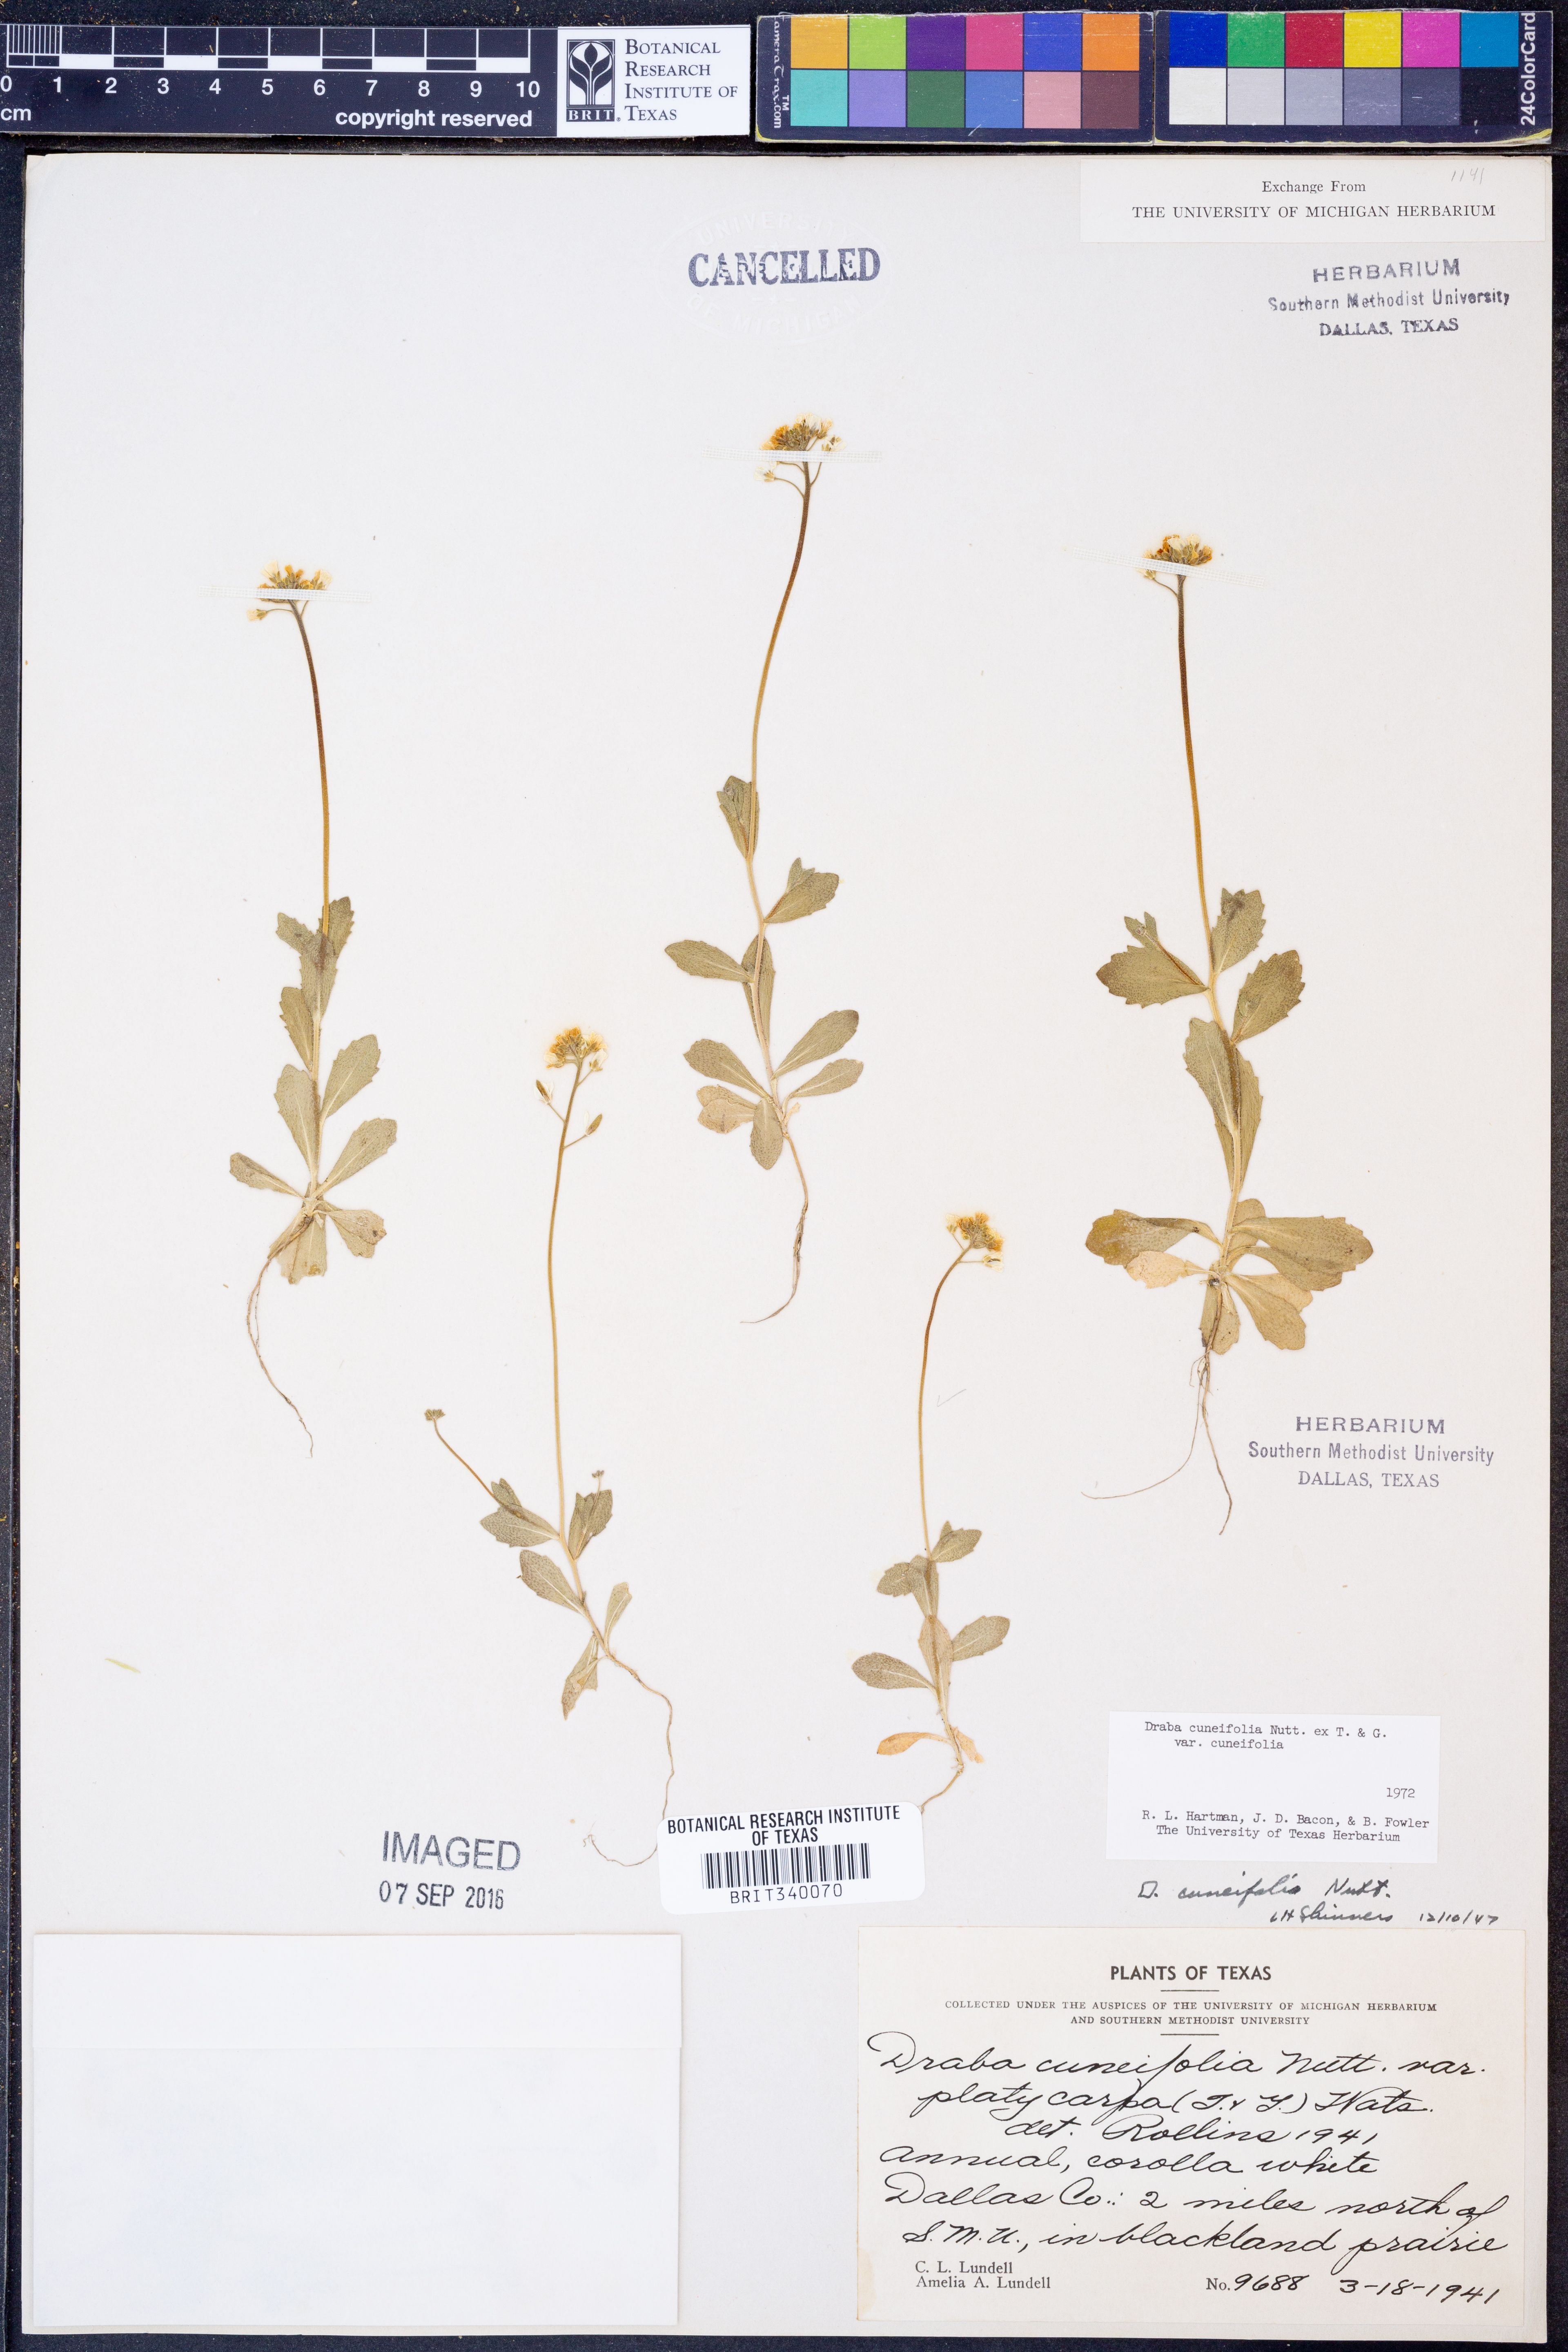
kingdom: Plantae
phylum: Tracheophyta
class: Magnoliopsida
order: Brassicales
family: Brassicaceae
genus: Tomostima
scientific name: Tomostima cuneifolia
